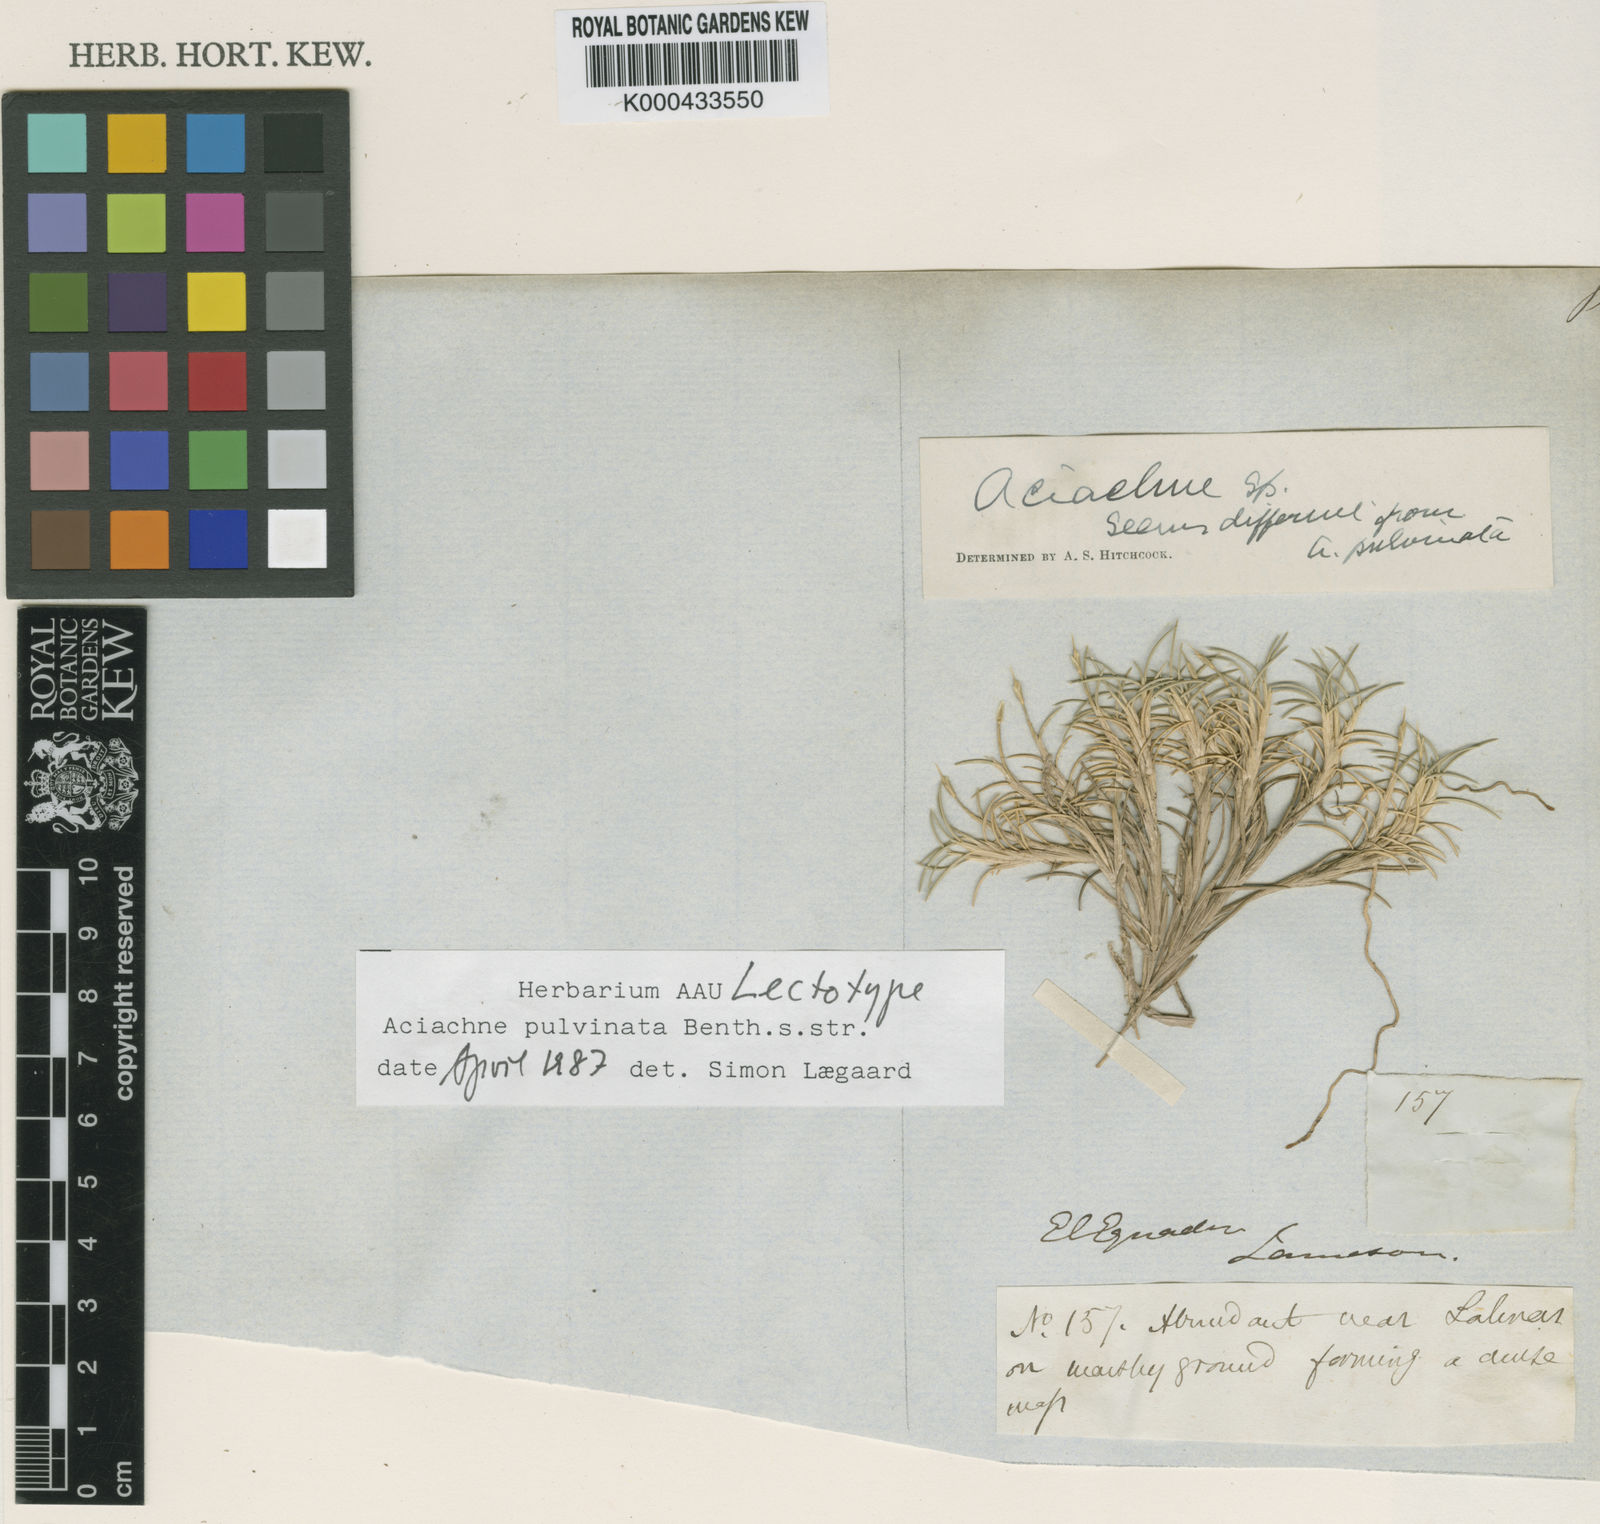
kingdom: Plantae
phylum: Tracheophyta
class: Liliopsida
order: Poales
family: Poaceae
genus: Aciachne
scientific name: Aciachne pulvinata
